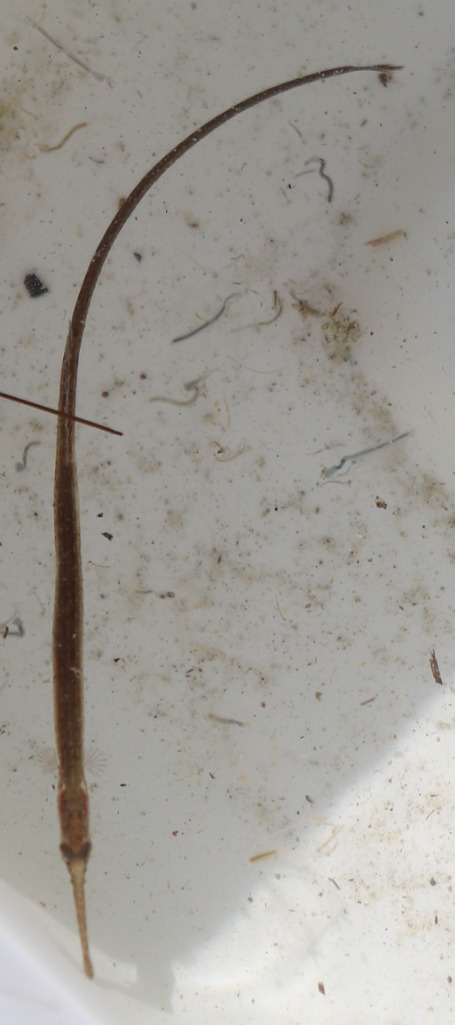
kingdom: Animalia
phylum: Chordata
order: Syngnathiformes
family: Syngnathidae
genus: Syngnathus
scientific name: Syngnathus typhle
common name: Almindelig tangnål
